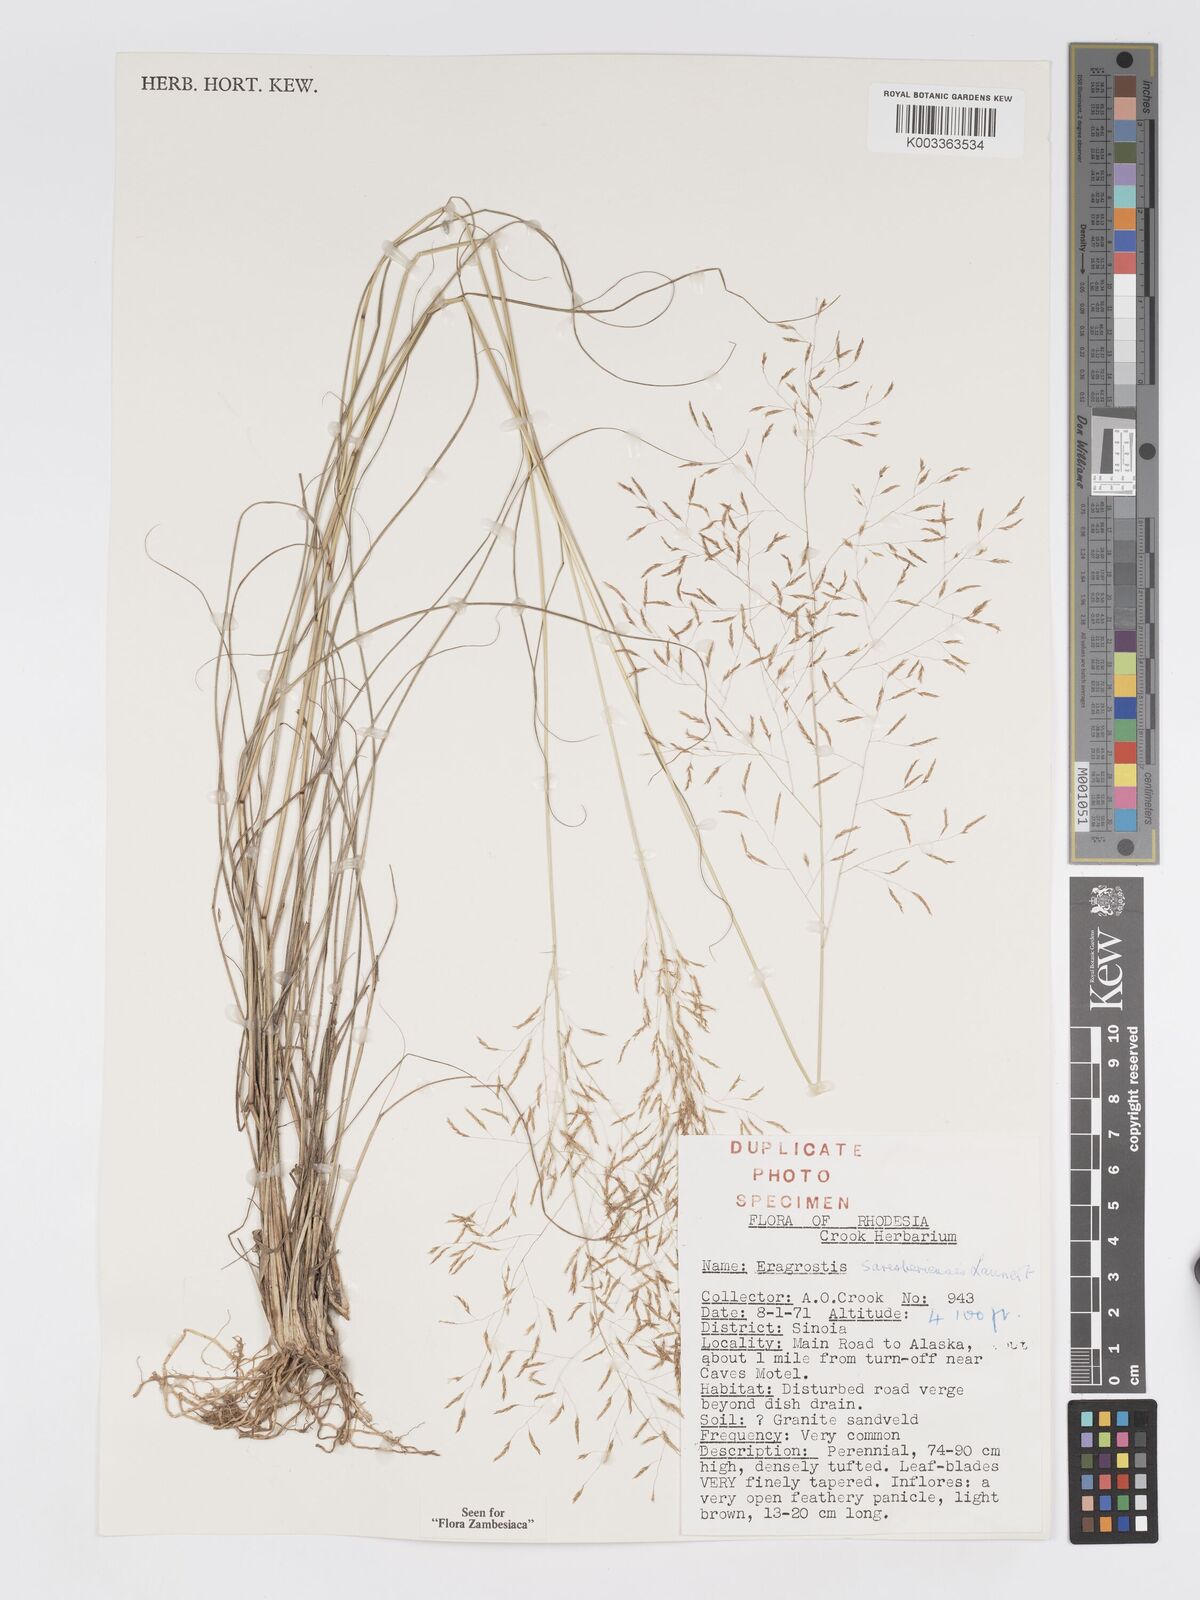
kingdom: Plantae
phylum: Tracheophyta
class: Liliopsida
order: Poales
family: Poaceae
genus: Eragrostis
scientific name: Eragrostis saresberiensis
